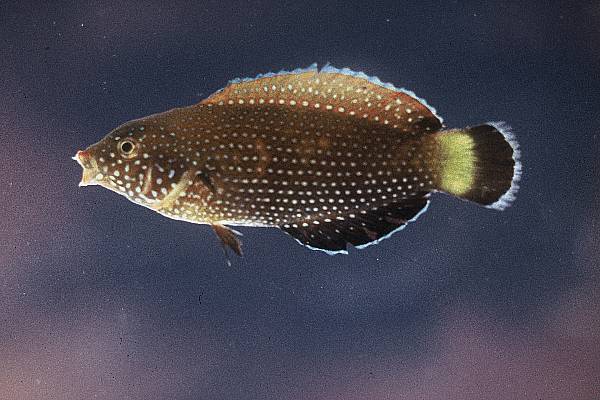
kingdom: Animalia
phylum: Chordata
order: Perciformes
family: Labridae
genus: Anampses
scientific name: Anampses lineatus
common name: Lined wrasse
